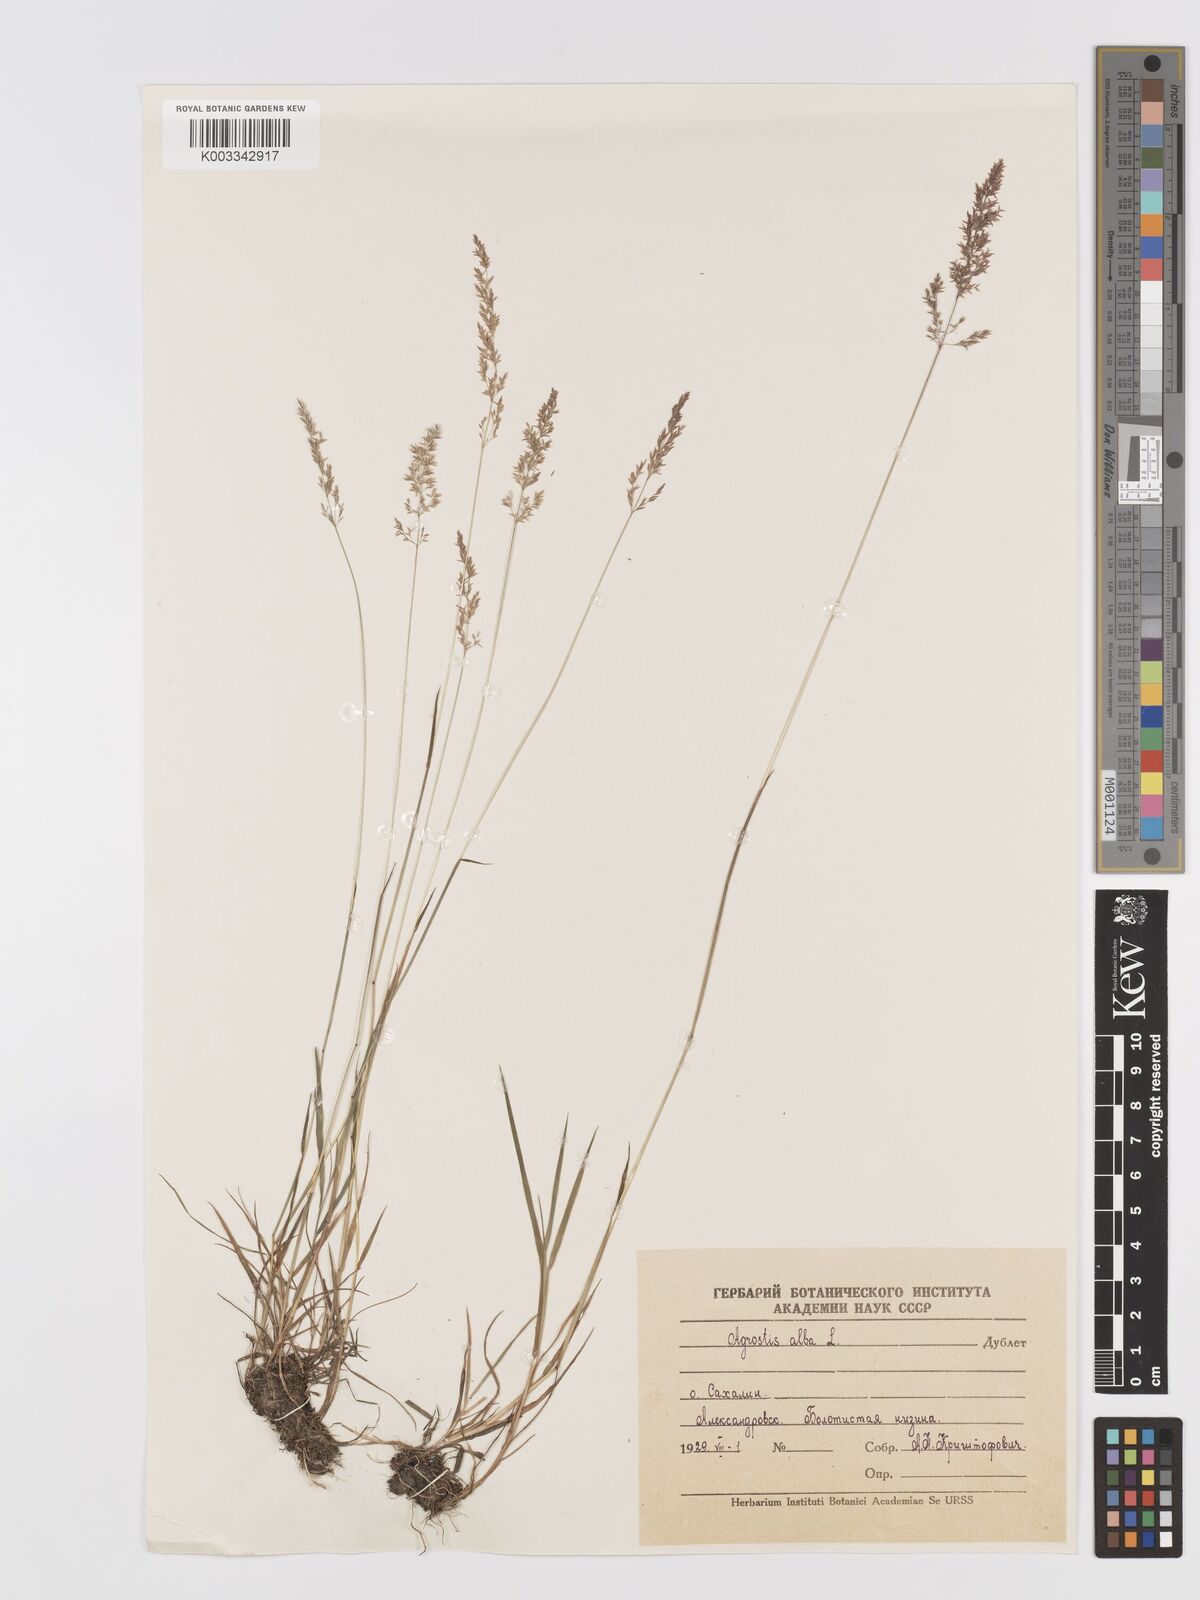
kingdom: Plantae
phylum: Tracheophyta
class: Liliopsida
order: Poales
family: Poaceae
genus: Agrostis
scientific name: Agrostis gigantea
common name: Black bent
